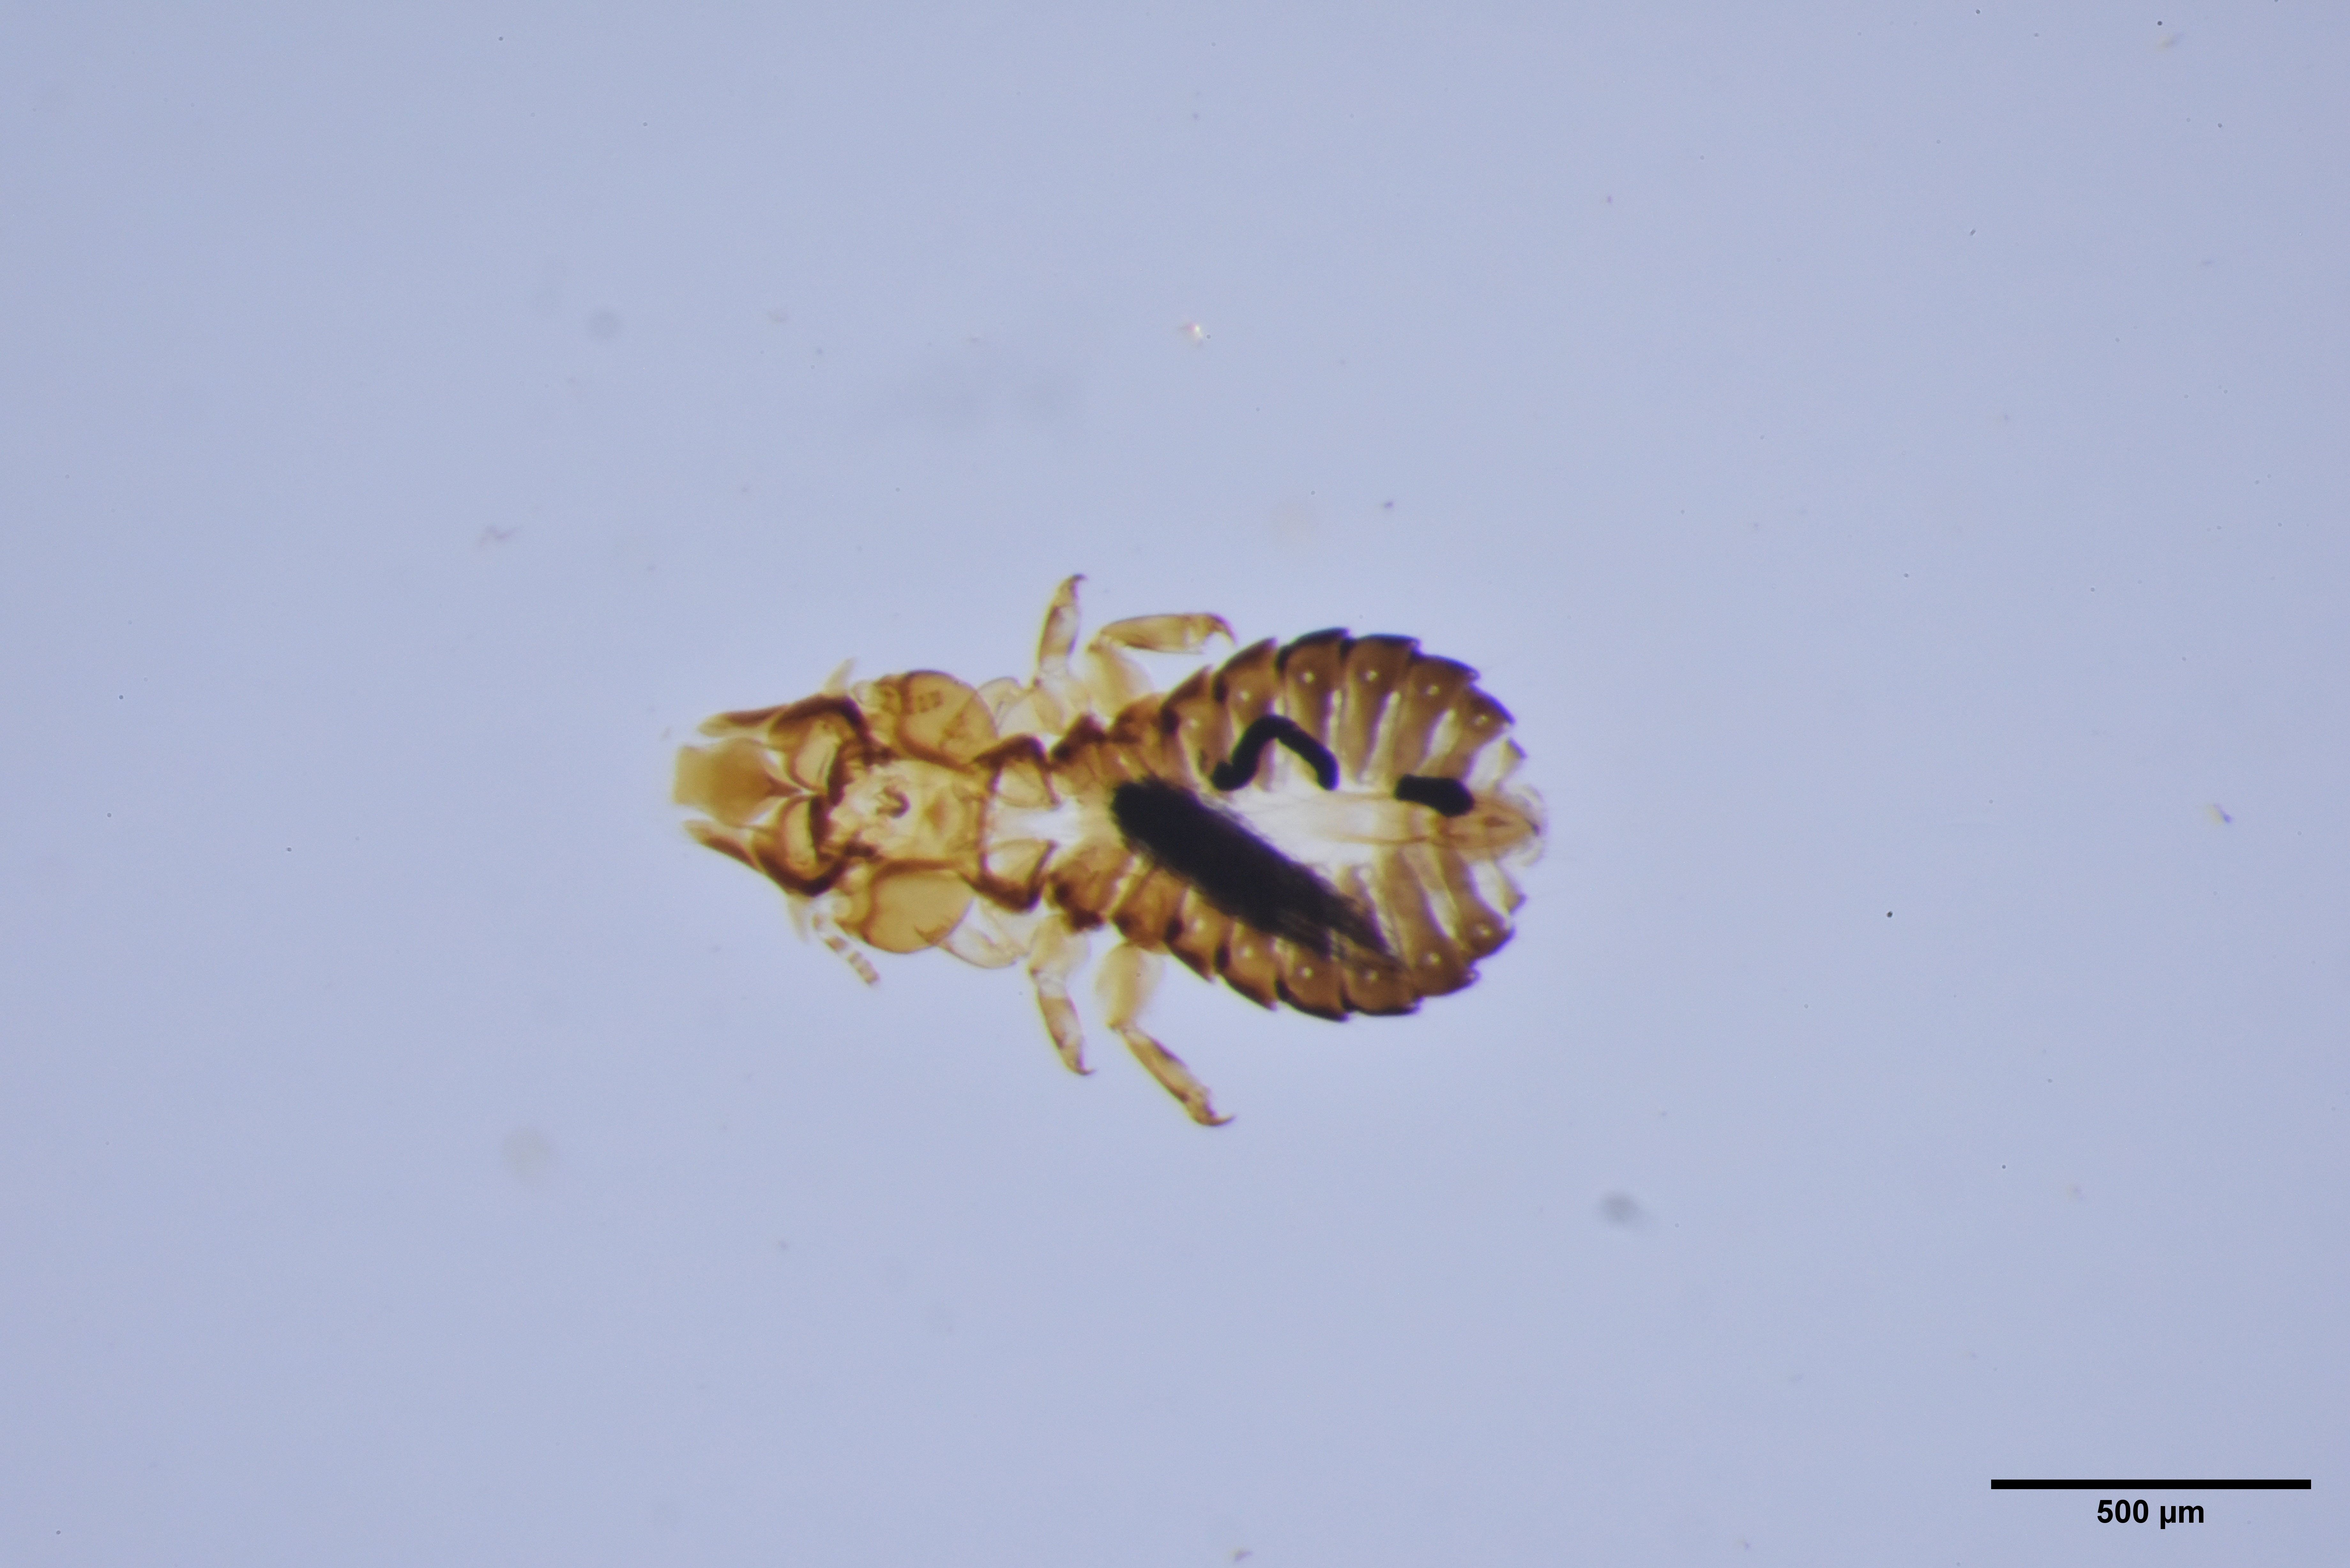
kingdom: Animalia
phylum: Arthropoda
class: Insecta
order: Psocodea
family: Philopteridae
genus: Saemundssonia
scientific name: Saemundssonia merguli
